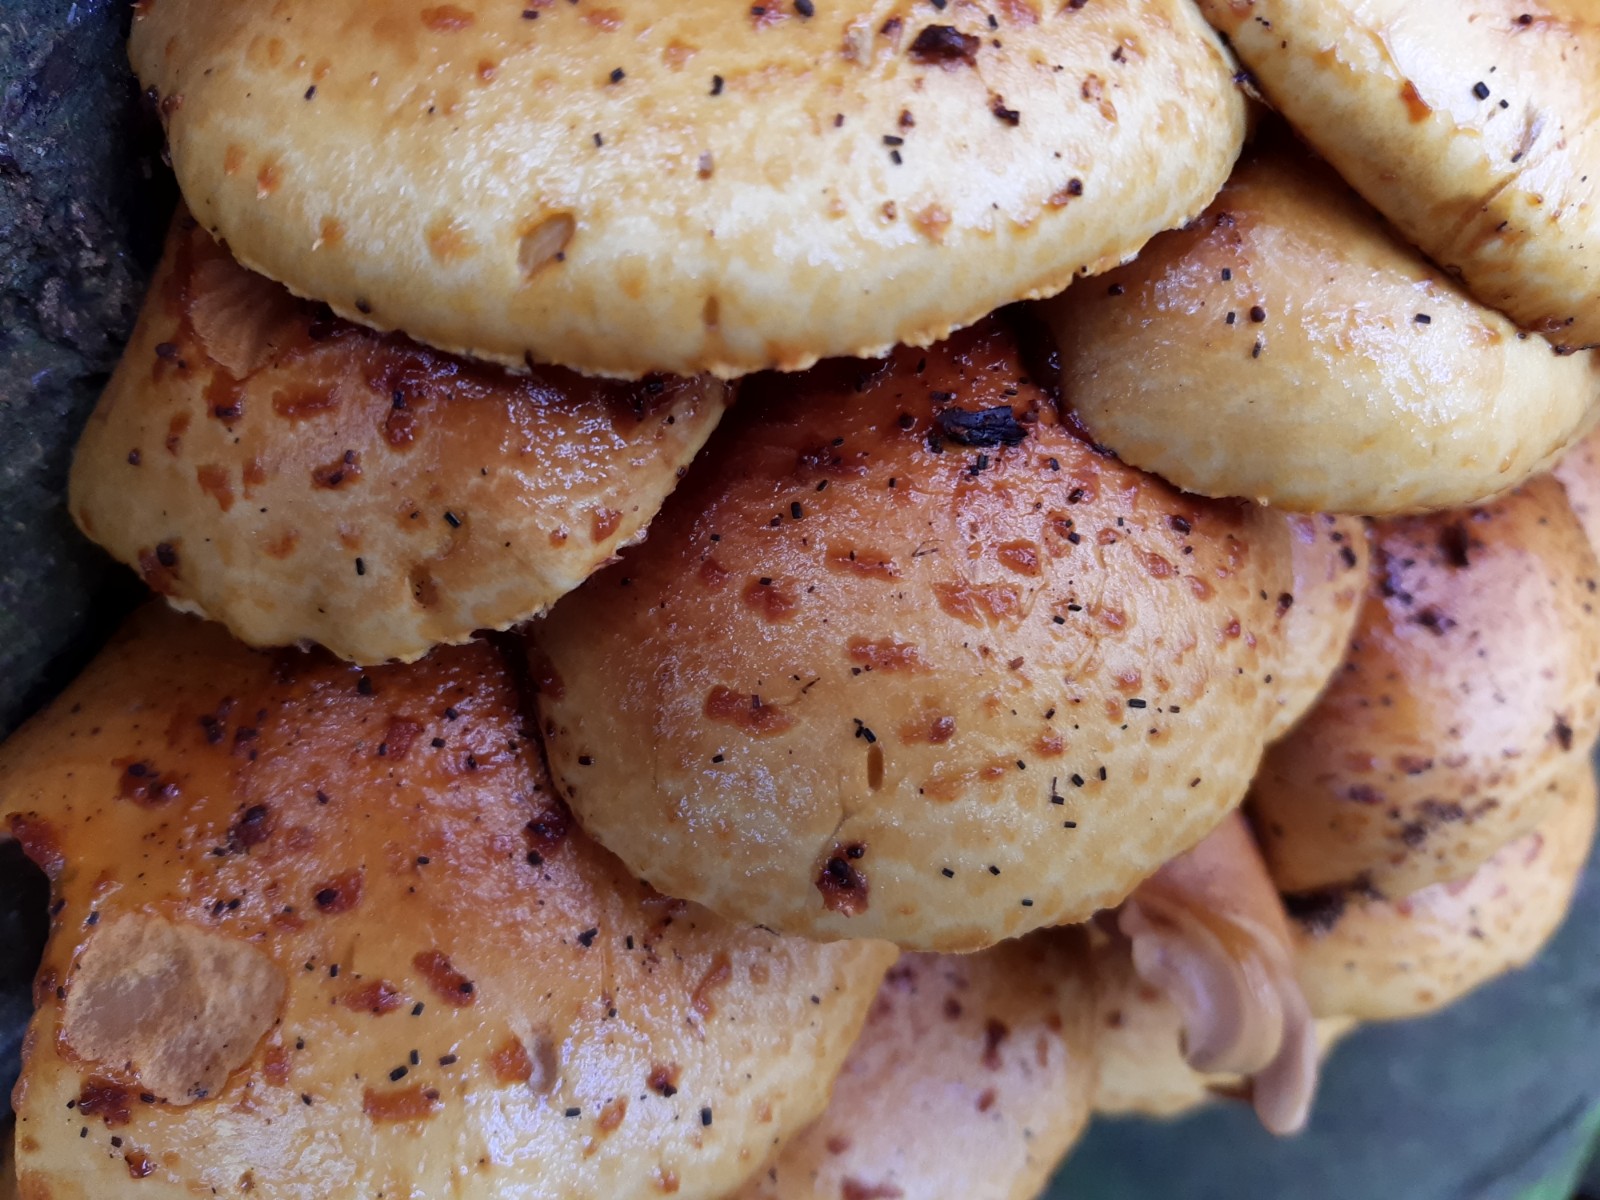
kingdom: Fungi
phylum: Basidiomycota
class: Agaricomycetes
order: Agaricales
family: Strophariaceae
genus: Pholiota
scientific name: Pholiota adiposa
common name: højtsiddende skælhat
